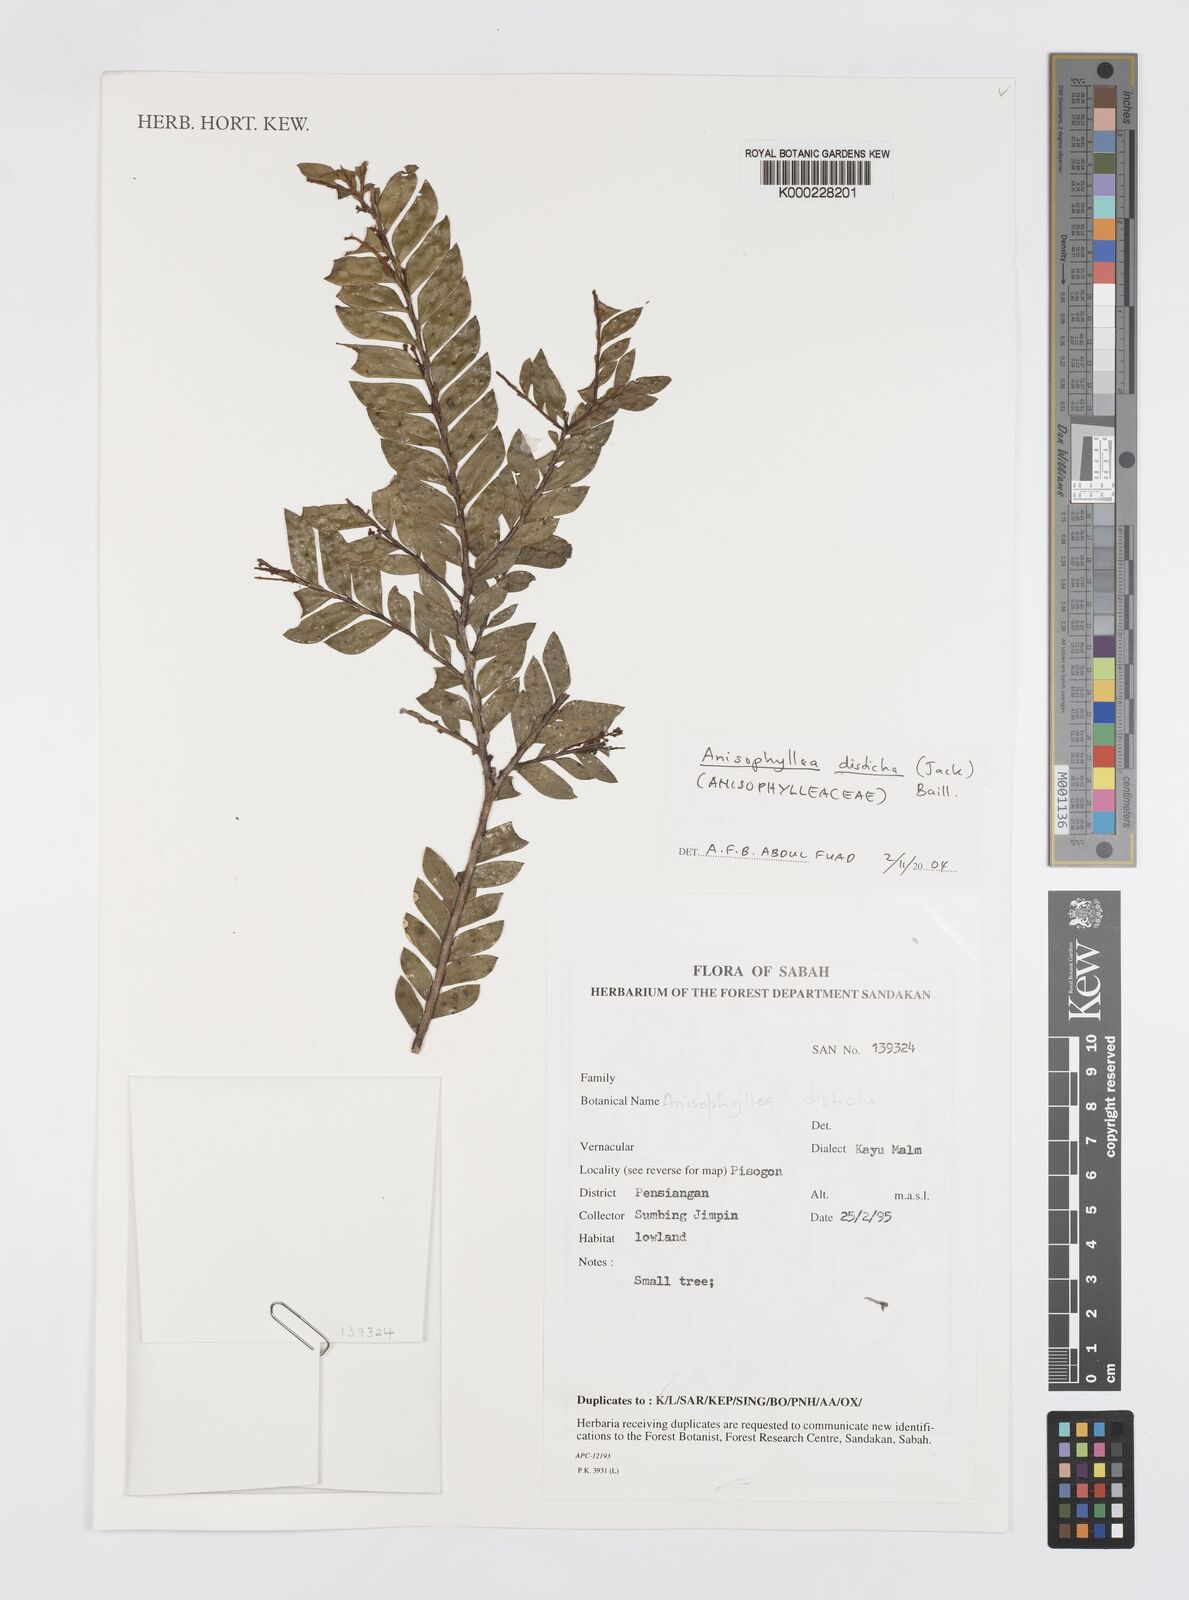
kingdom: Plantae
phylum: Tracheophyta
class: Magnoliopsida
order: Cucurbitales
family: Anisophylleaceae
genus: Anisophyllea
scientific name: Anisophyllea disticha
